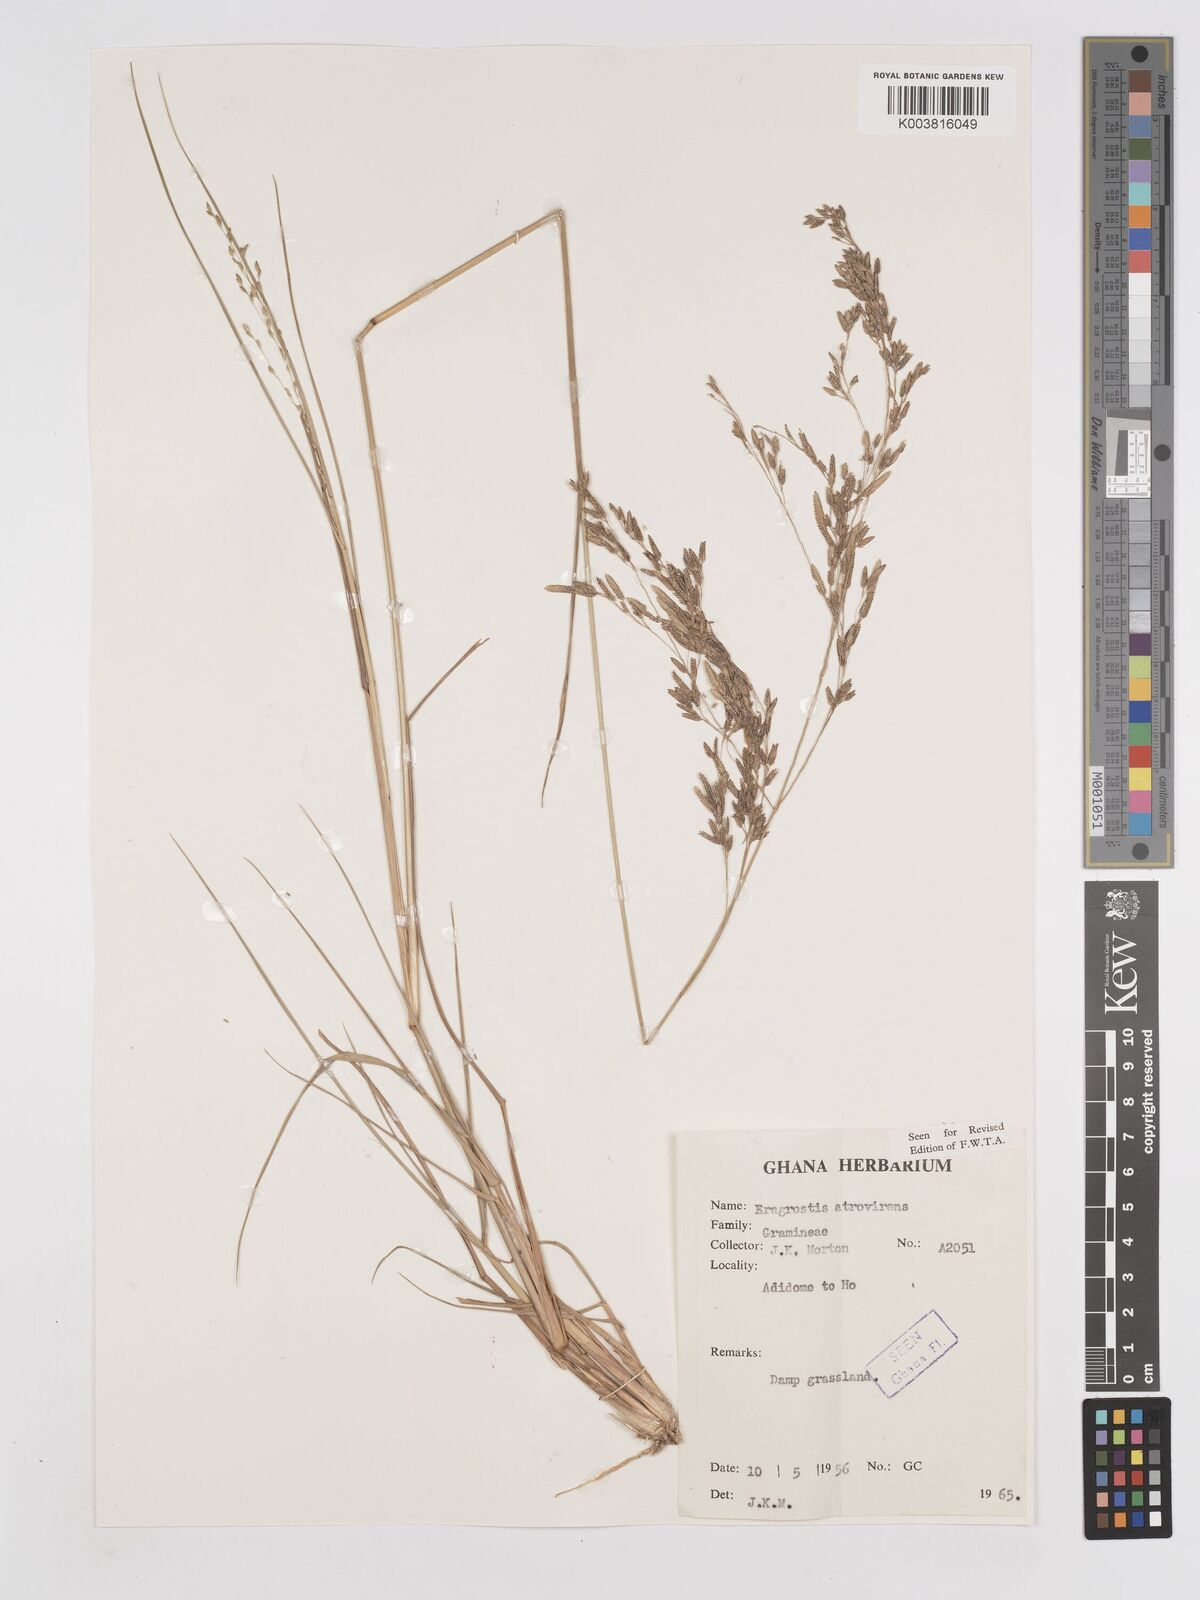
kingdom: Plantae
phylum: Tracheophyta
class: Liliopsida
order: Poales
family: Poaceae
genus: Eragrostis
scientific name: Eragrostis atrovirens
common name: Thalia lovegrass
